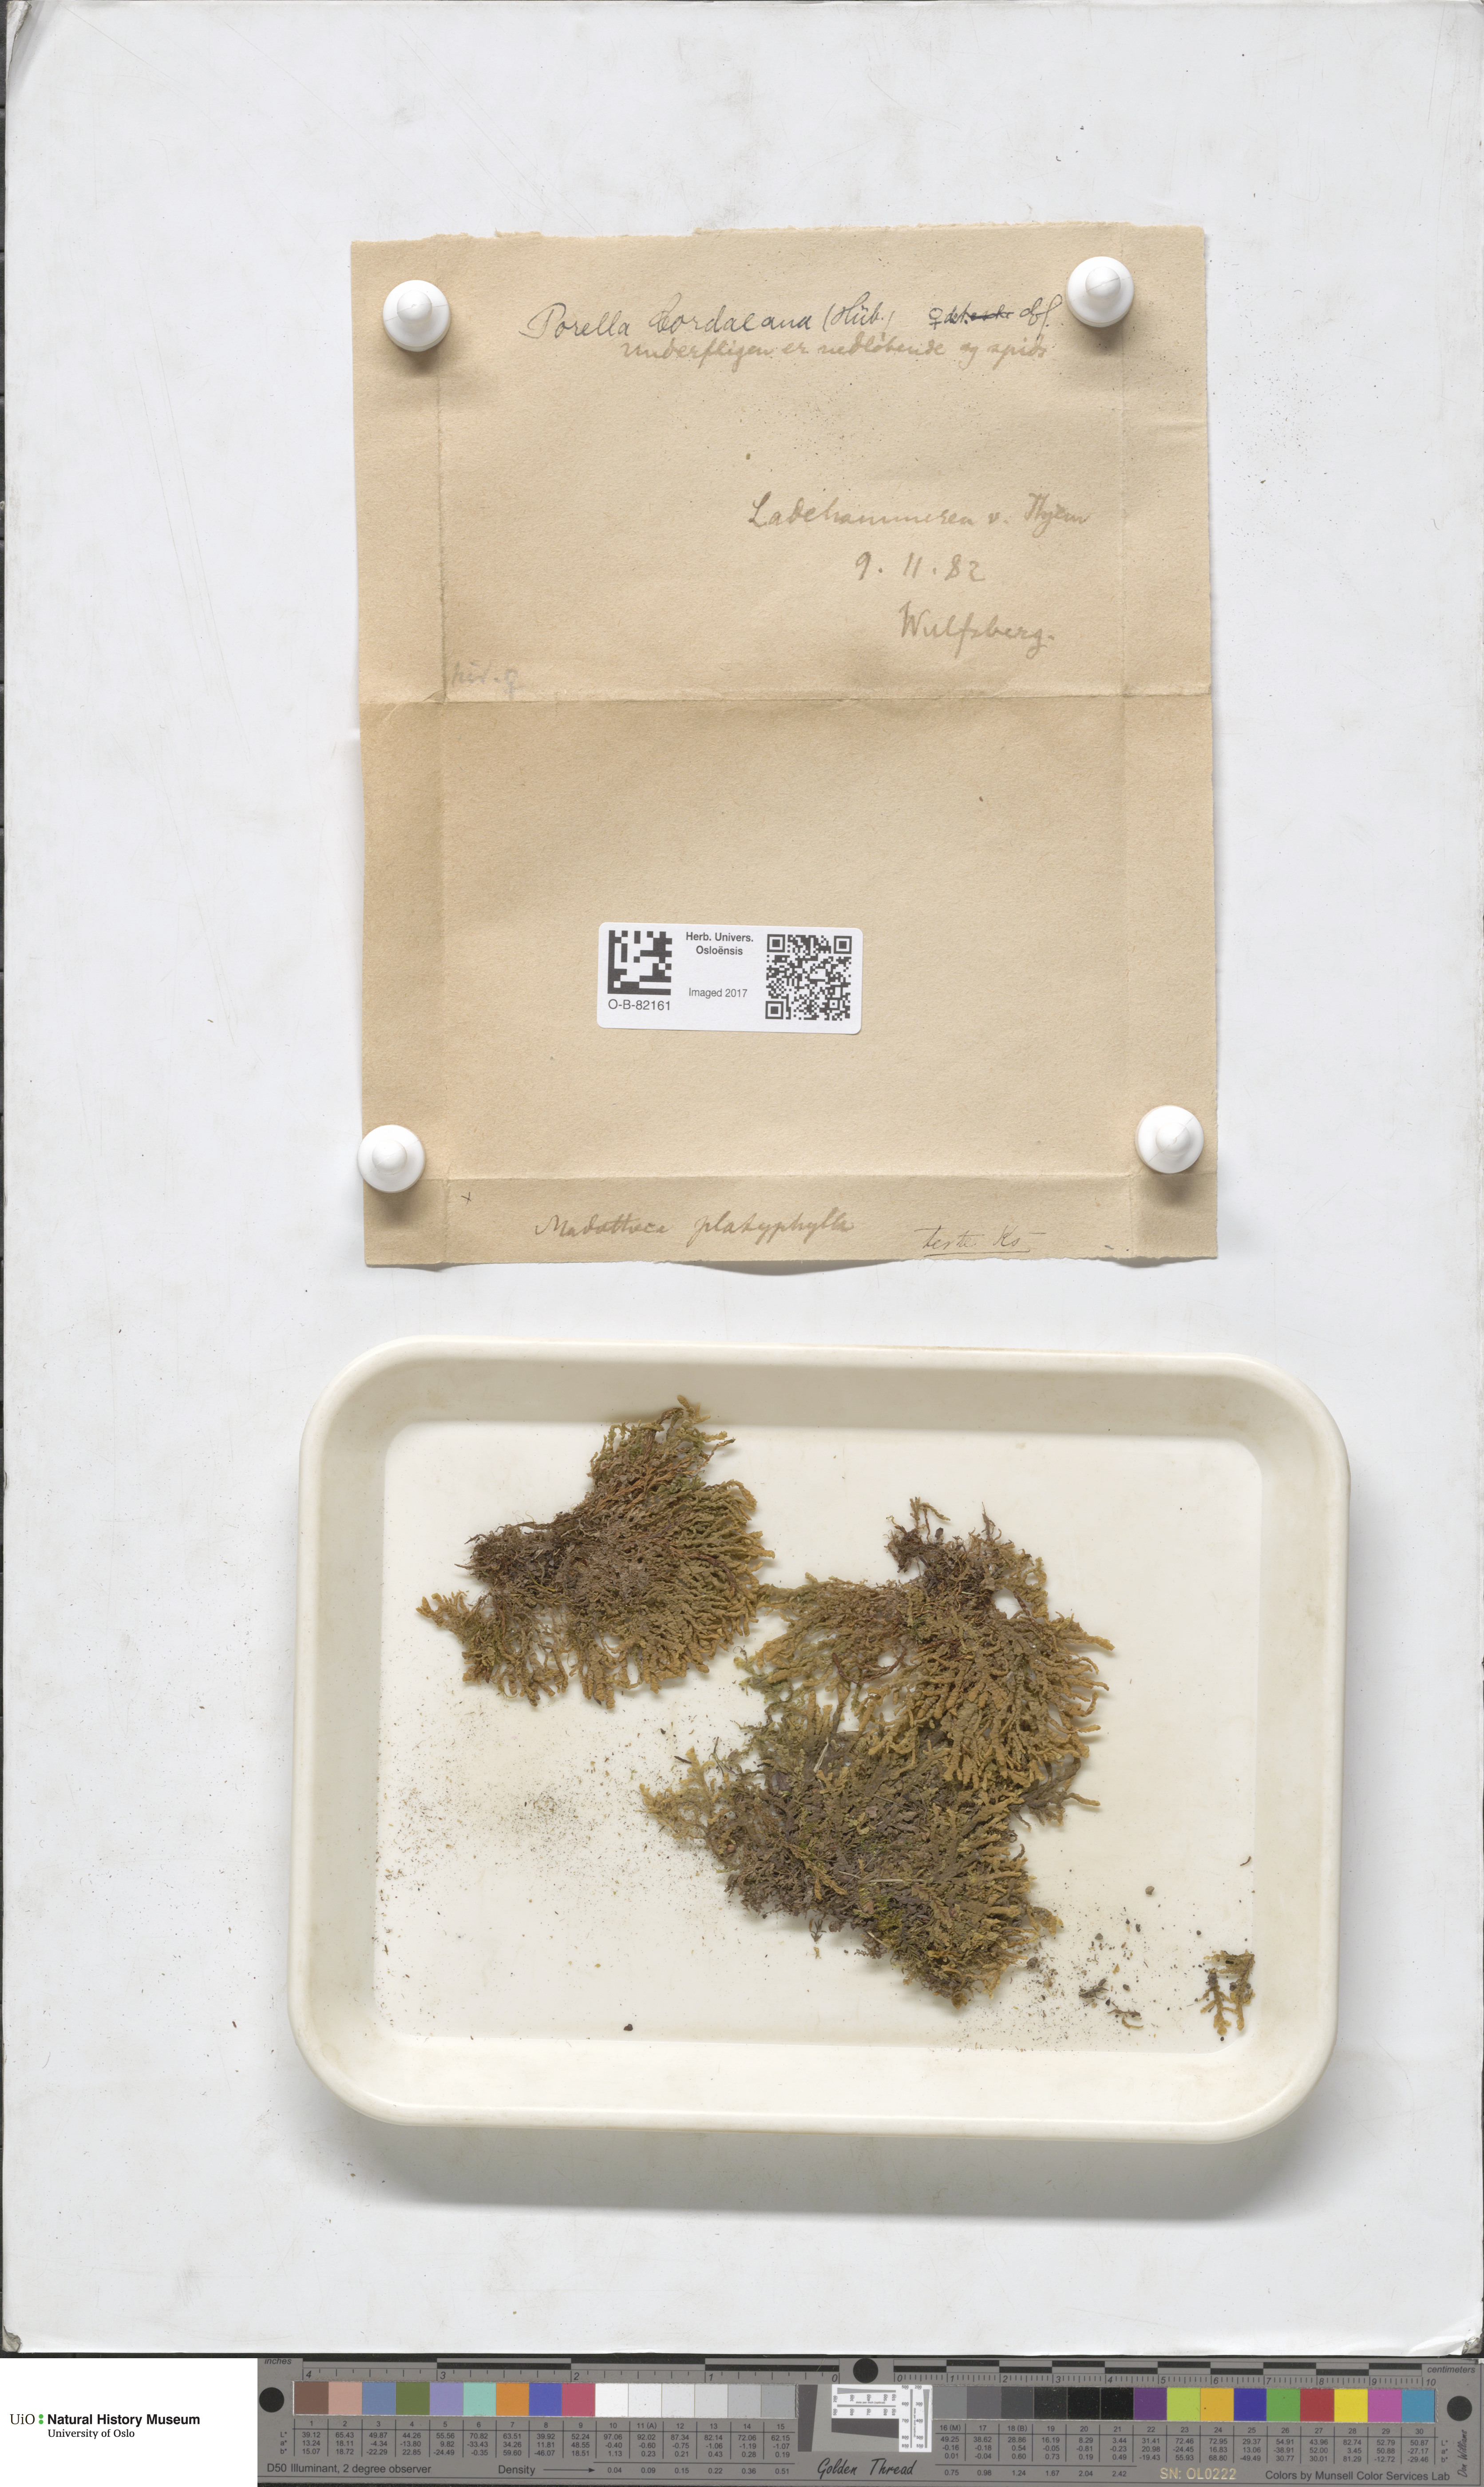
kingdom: Plantae
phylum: Marchantiophyta
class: Jungermanniopsida
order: Porellales
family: Porellaceae
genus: Porella
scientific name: Porella cordaeana
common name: Cliff scalewort
